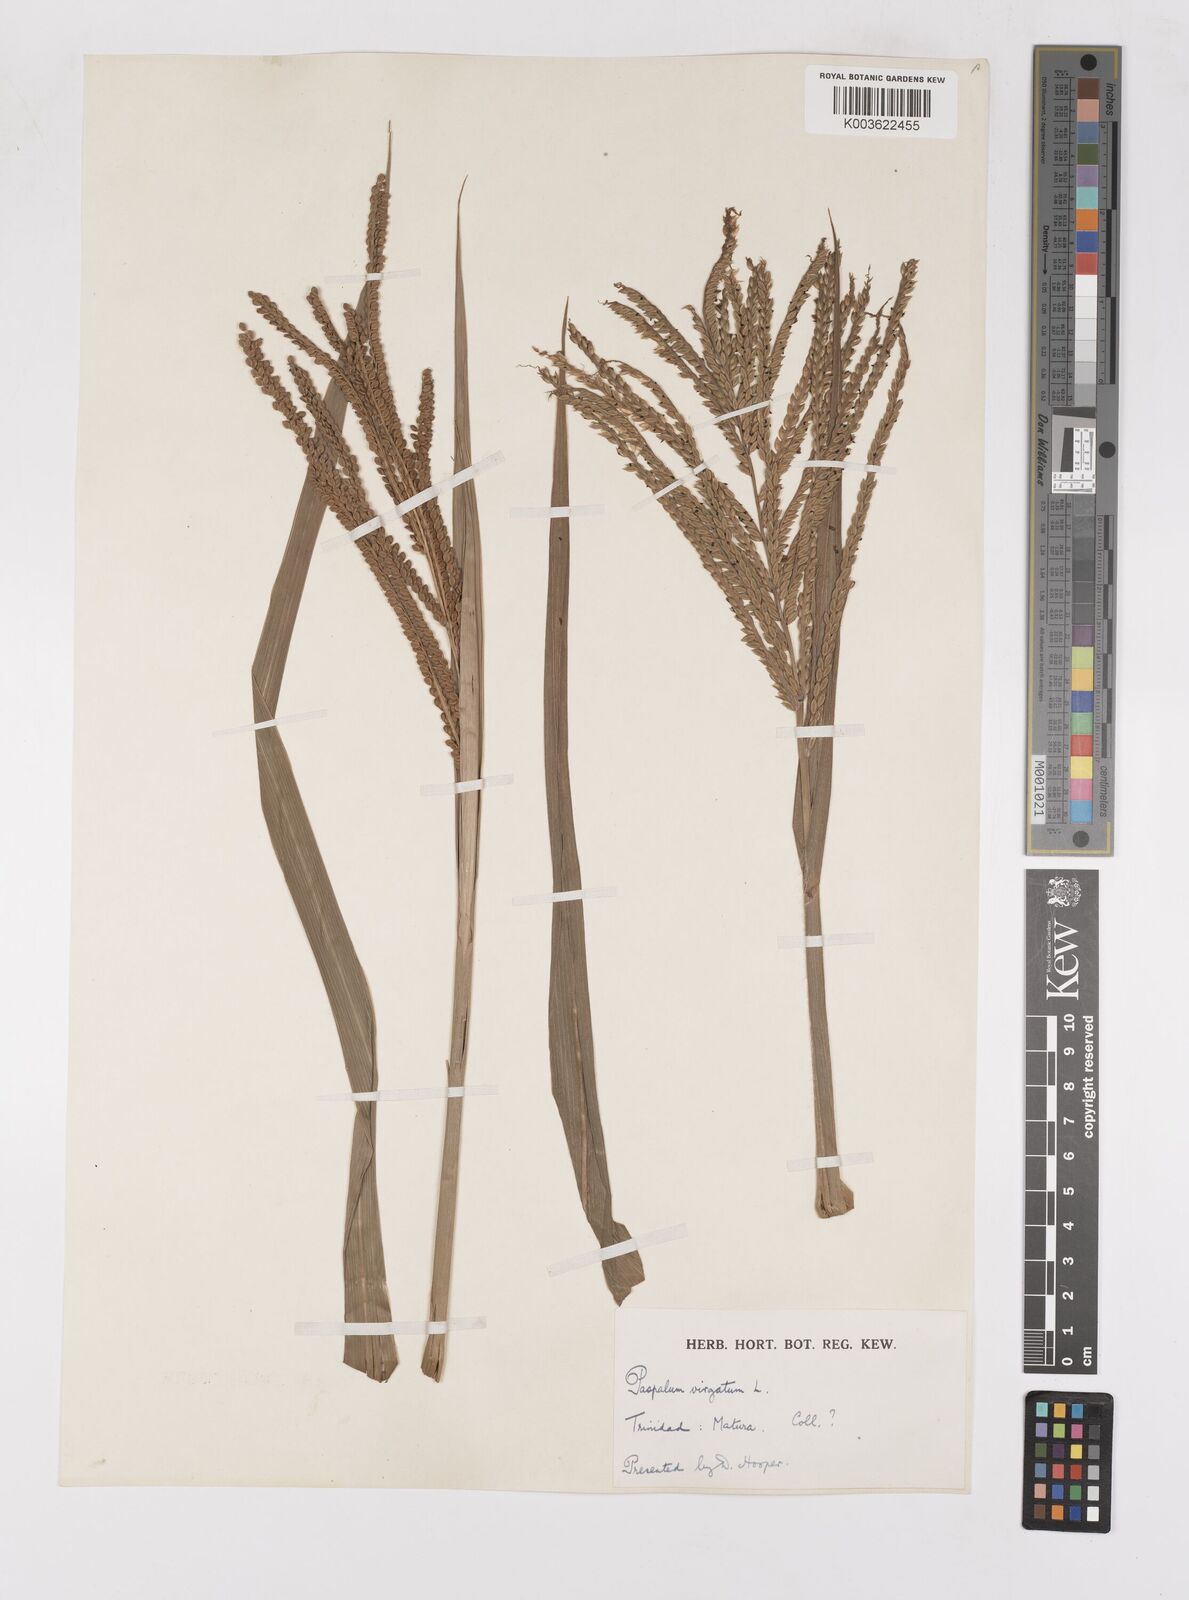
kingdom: Plantae
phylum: Tracheophyta
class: Liliopsida
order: Poales
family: Poaceae
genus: Paspalum
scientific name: Paspalum virgatum
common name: Talquezal
